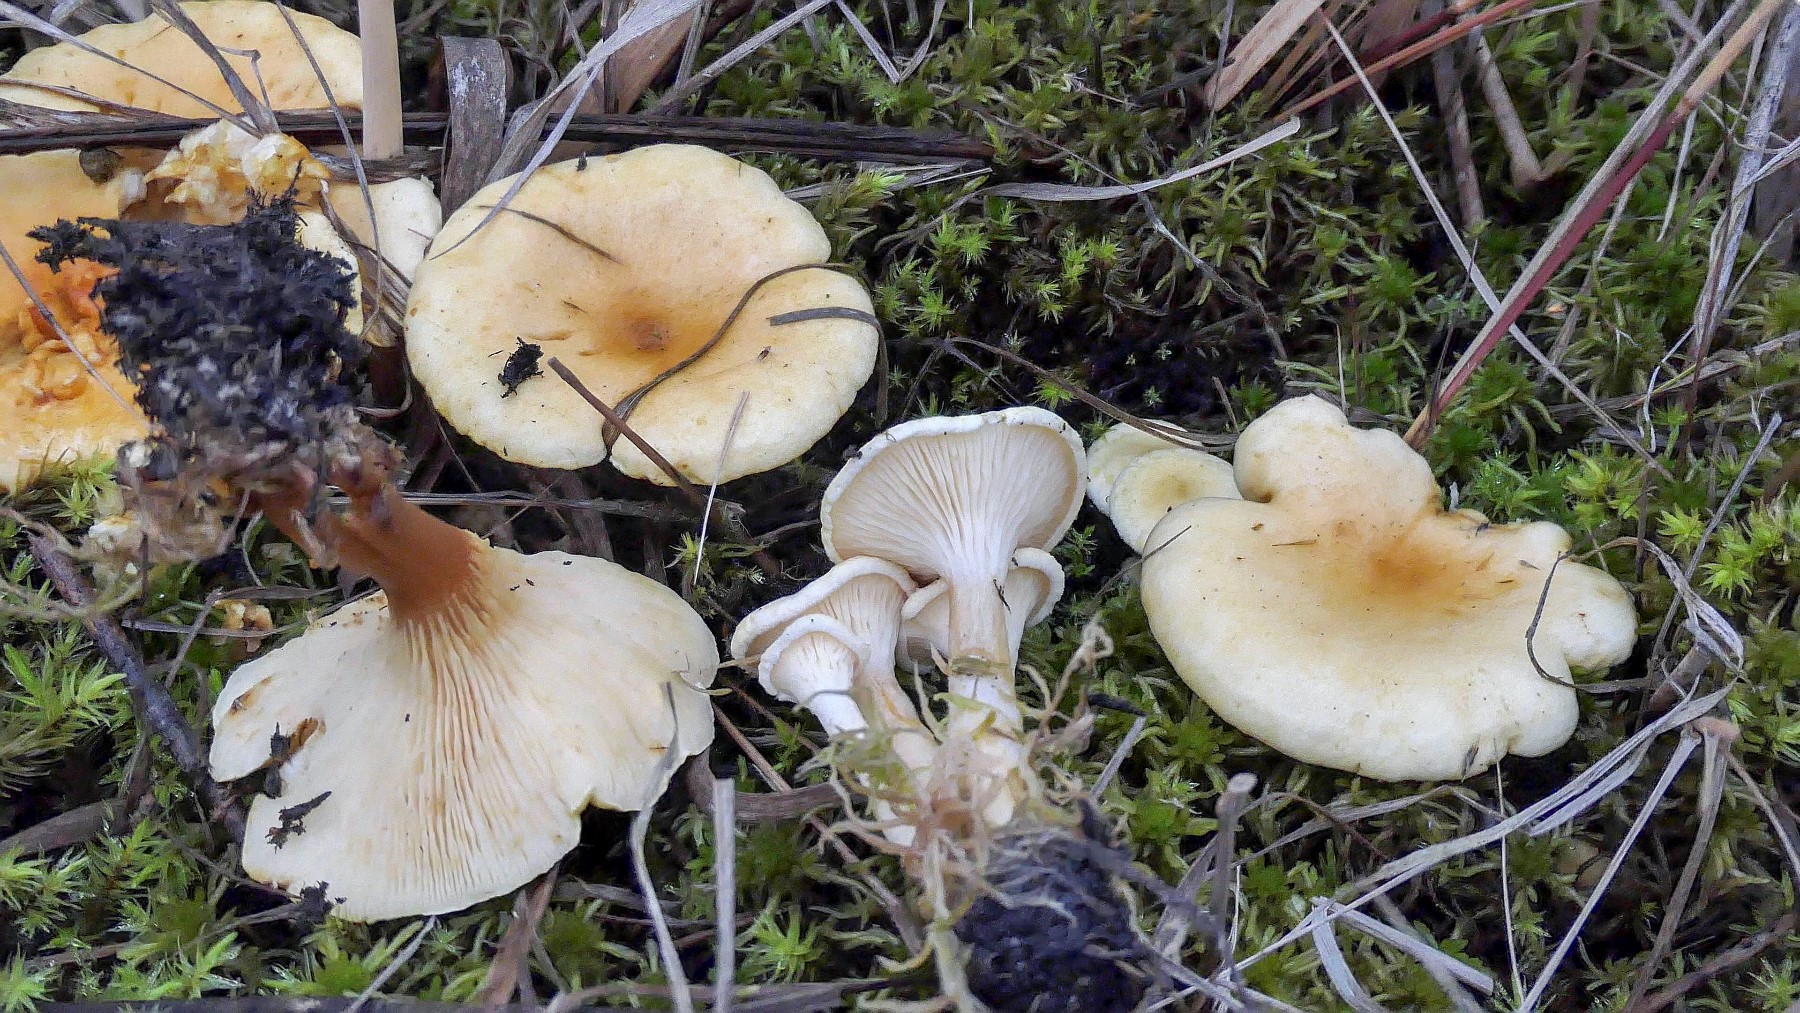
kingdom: Fungi
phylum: Basidiomycota
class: Agaricomycetes
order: Boletales
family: Hygrophoropsidaceae
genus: Hygrophoropsis
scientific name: Hygrophoropsis pallida
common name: bleg orangekantarel
